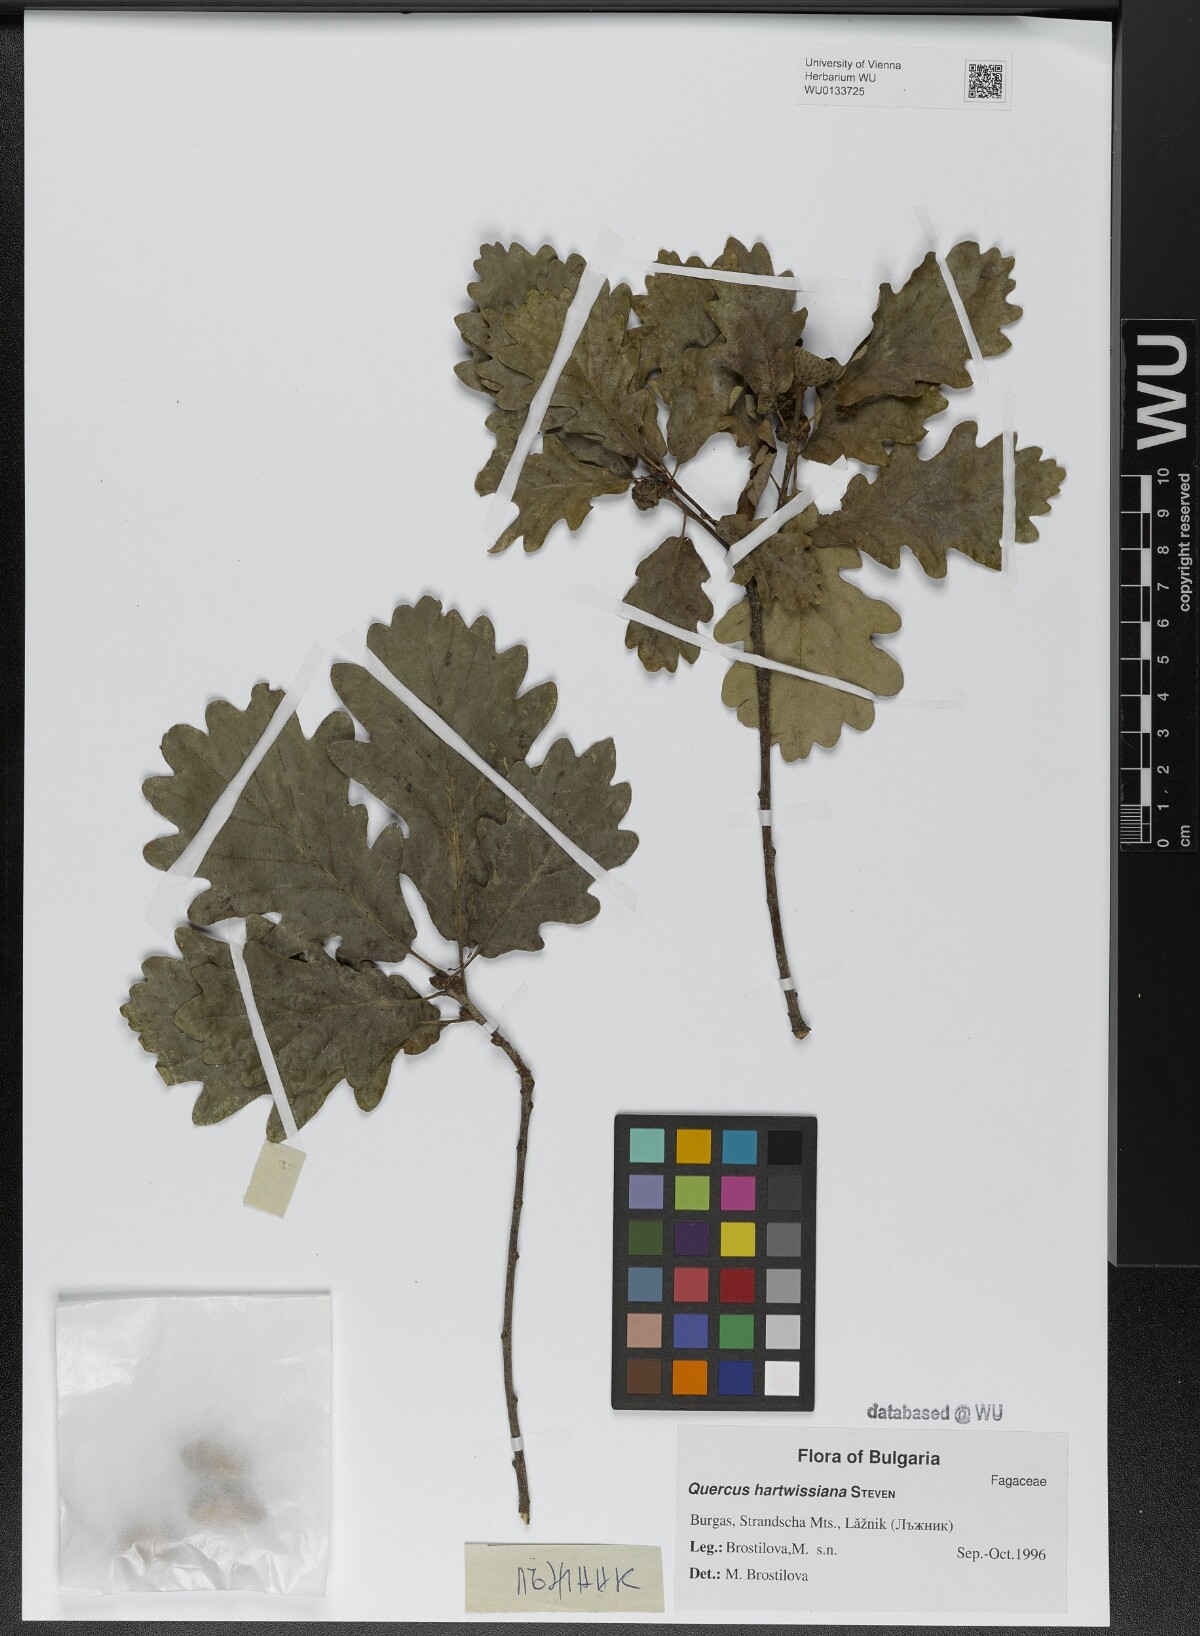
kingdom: Plantae
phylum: Tracheophyta
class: Magnoliopsida
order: Fagales
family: Fagaceae
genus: Quercus
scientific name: Quercus hartwissiana
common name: Strandzha oak
